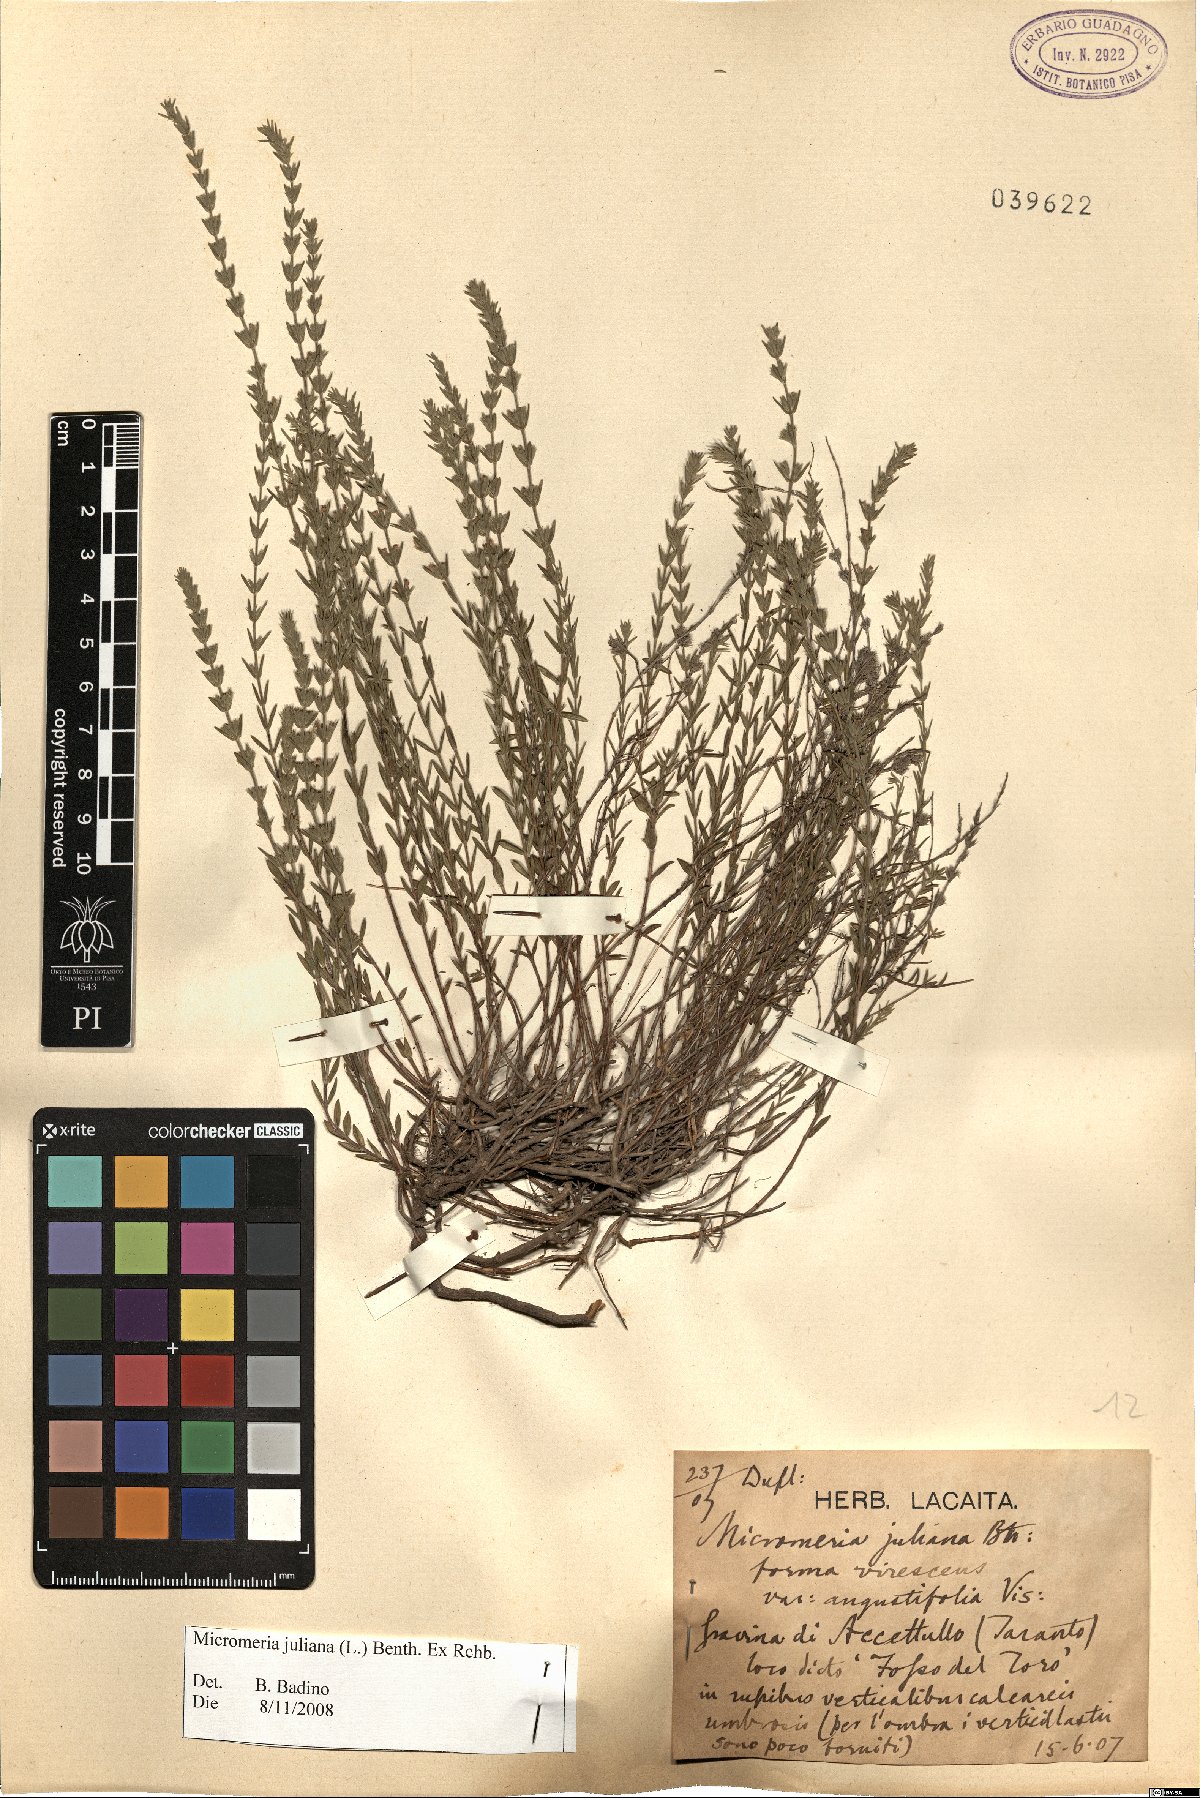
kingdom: Plantae
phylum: Tracheophyta
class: Magnoliopsida
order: Lamiales
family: Lamiaceae
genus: Micromeria
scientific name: Micromeria juliana
